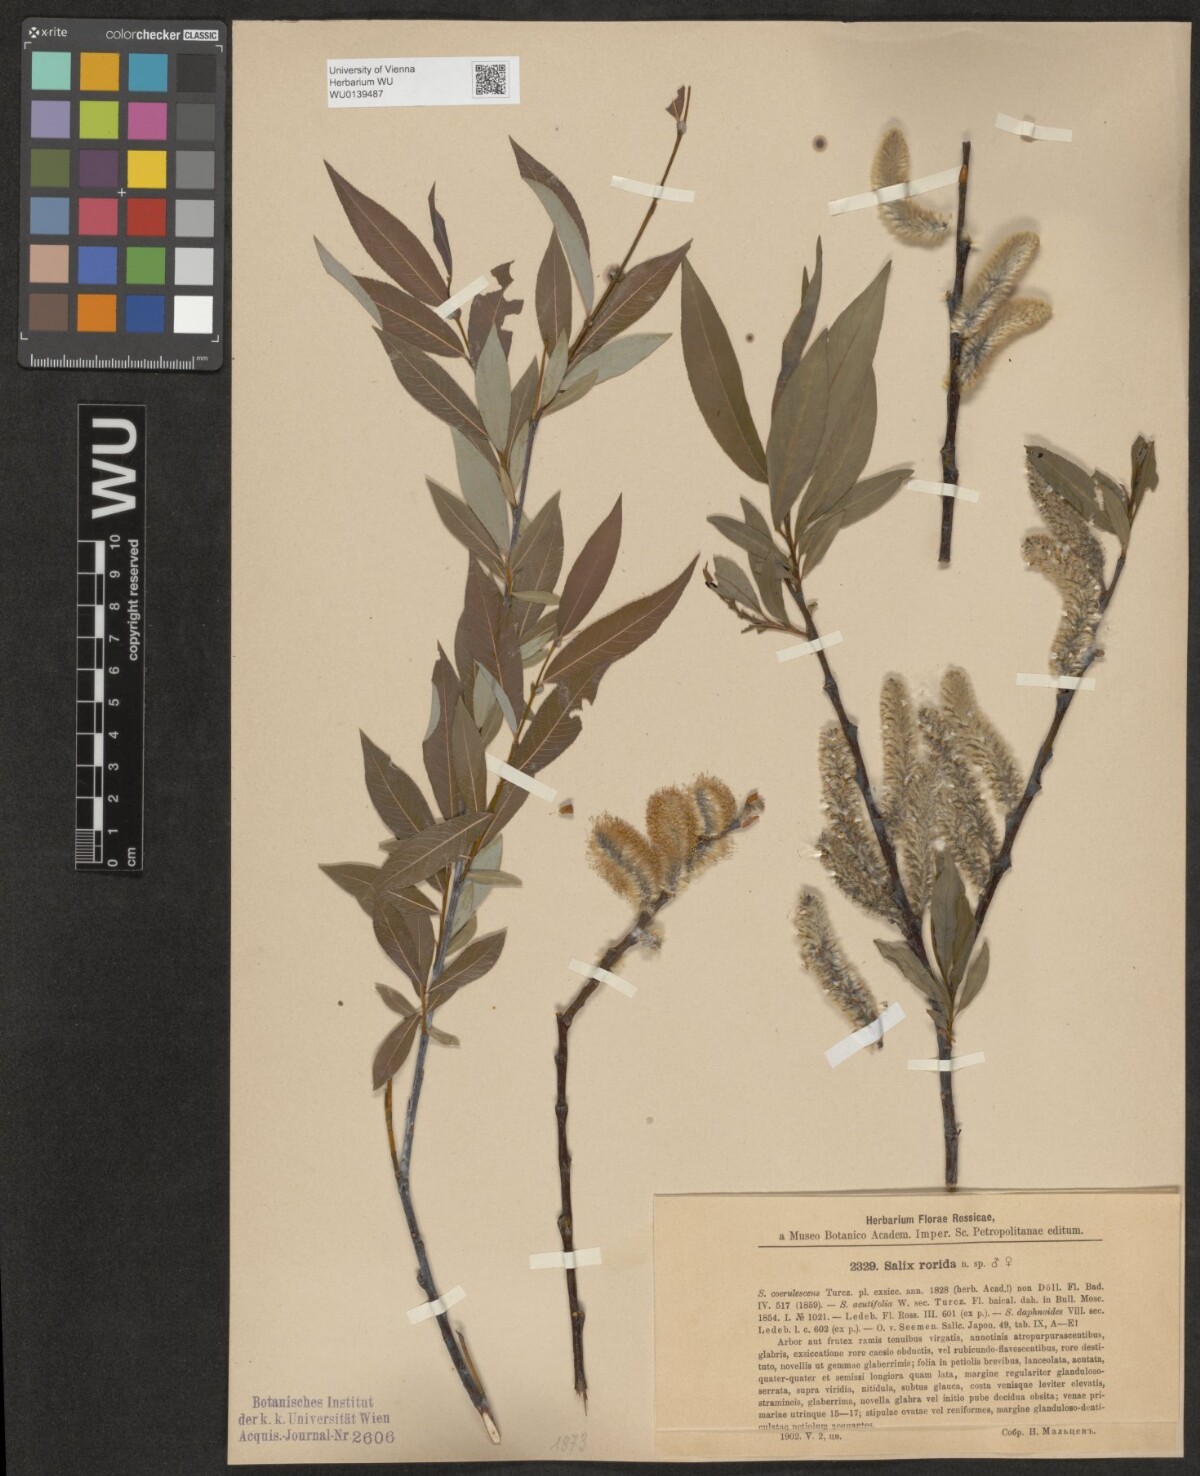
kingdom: Plantae
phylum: Tracheophyta
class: Magnoliopsida
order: Malpighiales
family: Salicaceae
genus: Salix
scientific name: Salix rorida
